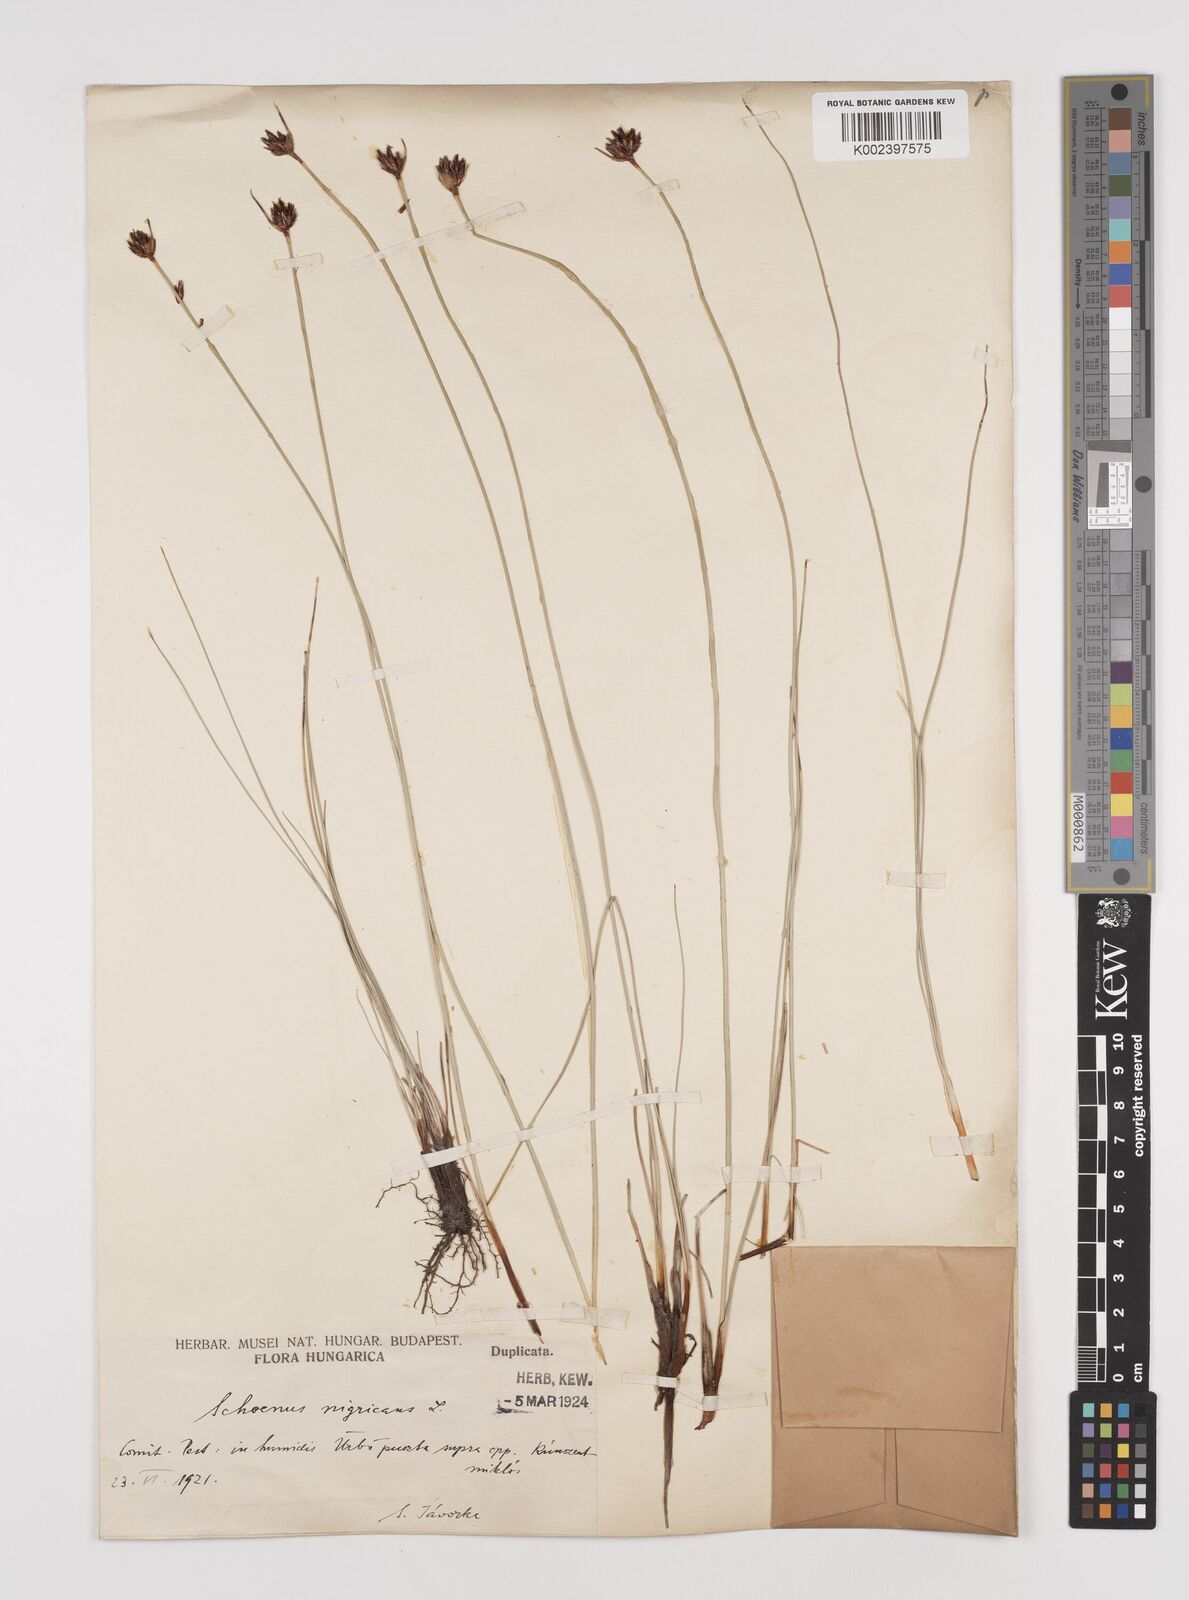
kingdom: Plantae
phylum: Tracheophyta
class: Liliopsida
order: Poales
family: Cyperaceae
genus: Schoenus
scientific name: Schoenus nigricans
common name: Black bog-rush
